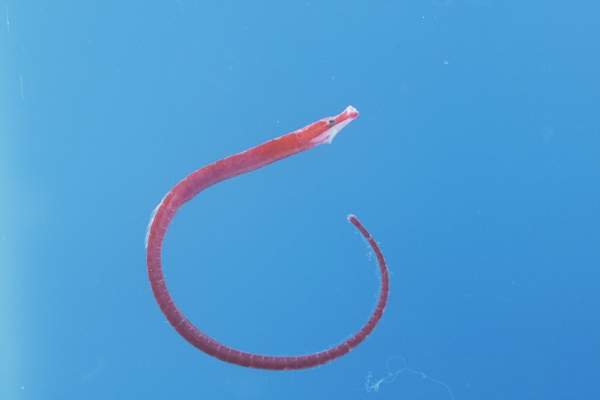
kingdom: Animalia
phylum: Chordata
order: Syngnathiformes
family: Syngnathidae
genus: Nannocampus
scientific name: Nannocampus elegans
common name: Elegant pipefish
